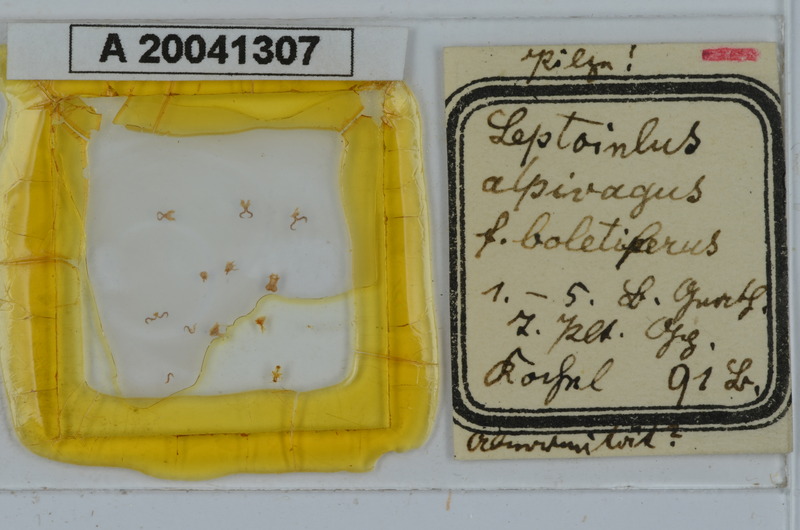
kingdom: Animalia
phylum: Arthropoda
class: Diplopoda
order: Julida
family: Julidae
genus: Hypsoiulus
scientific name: Hypsoiulus alpivagus
